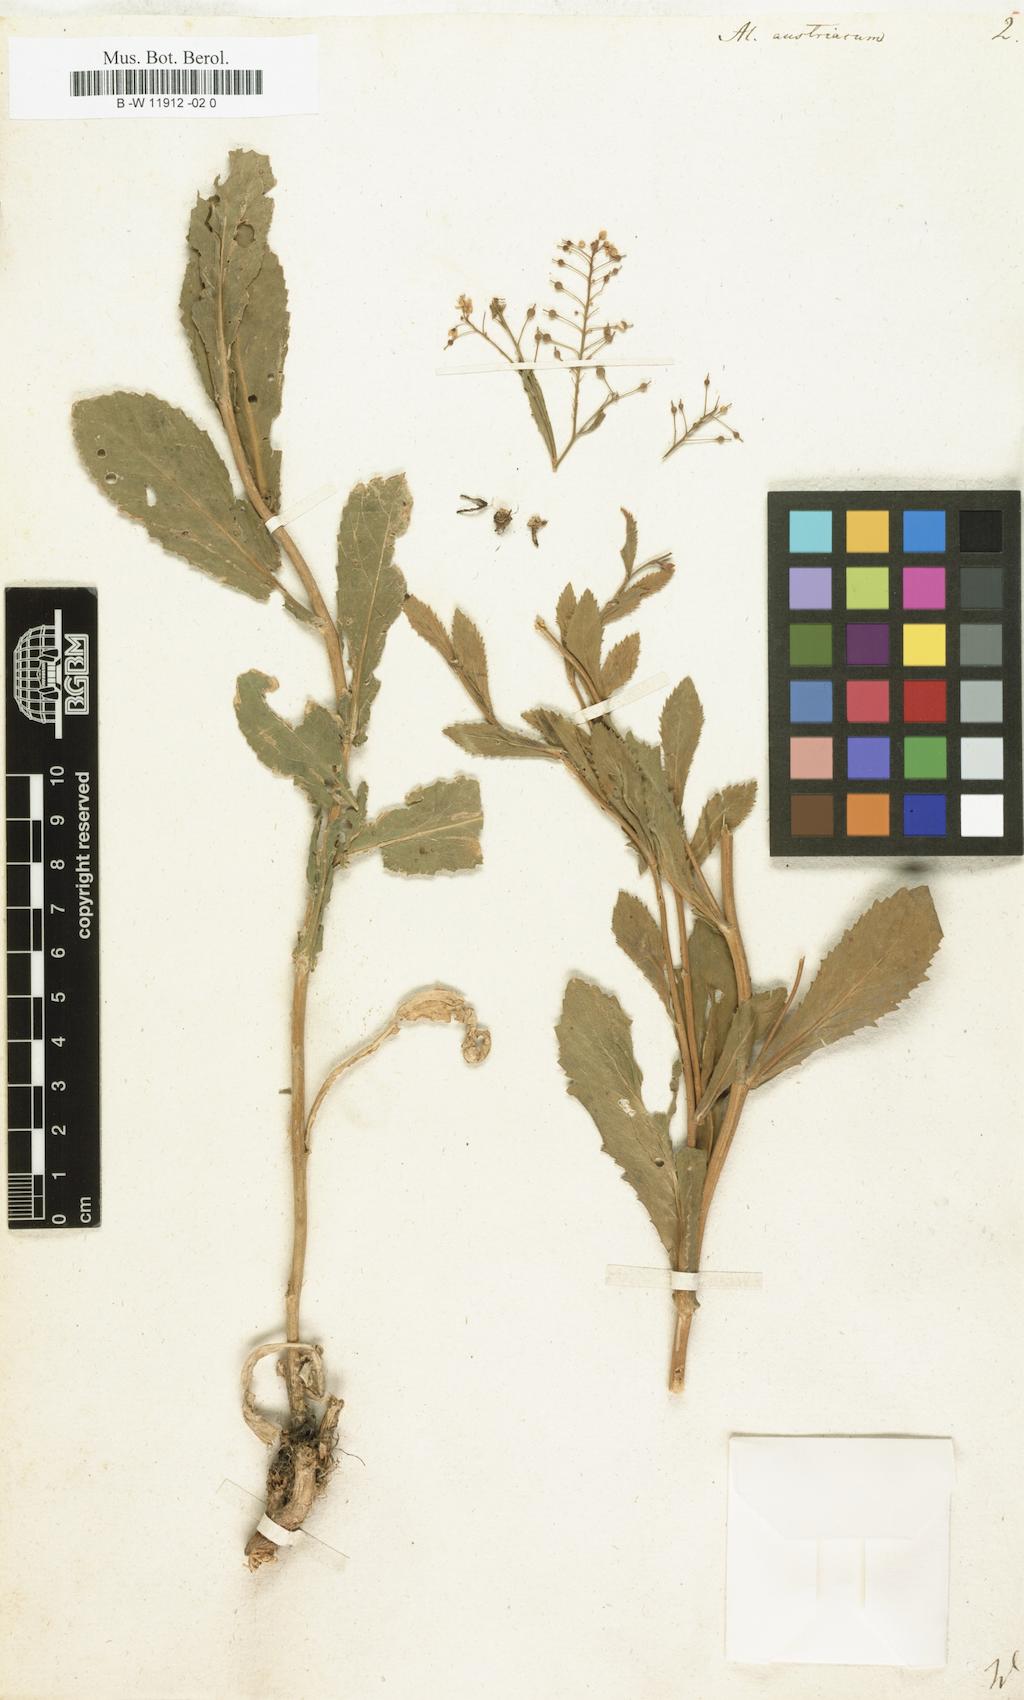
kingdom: Plantae
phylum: Tracheophyta
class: Magnoliopsida
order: Brassicales
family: Brassicaceae
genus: Alyssum
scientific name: Alyssum
